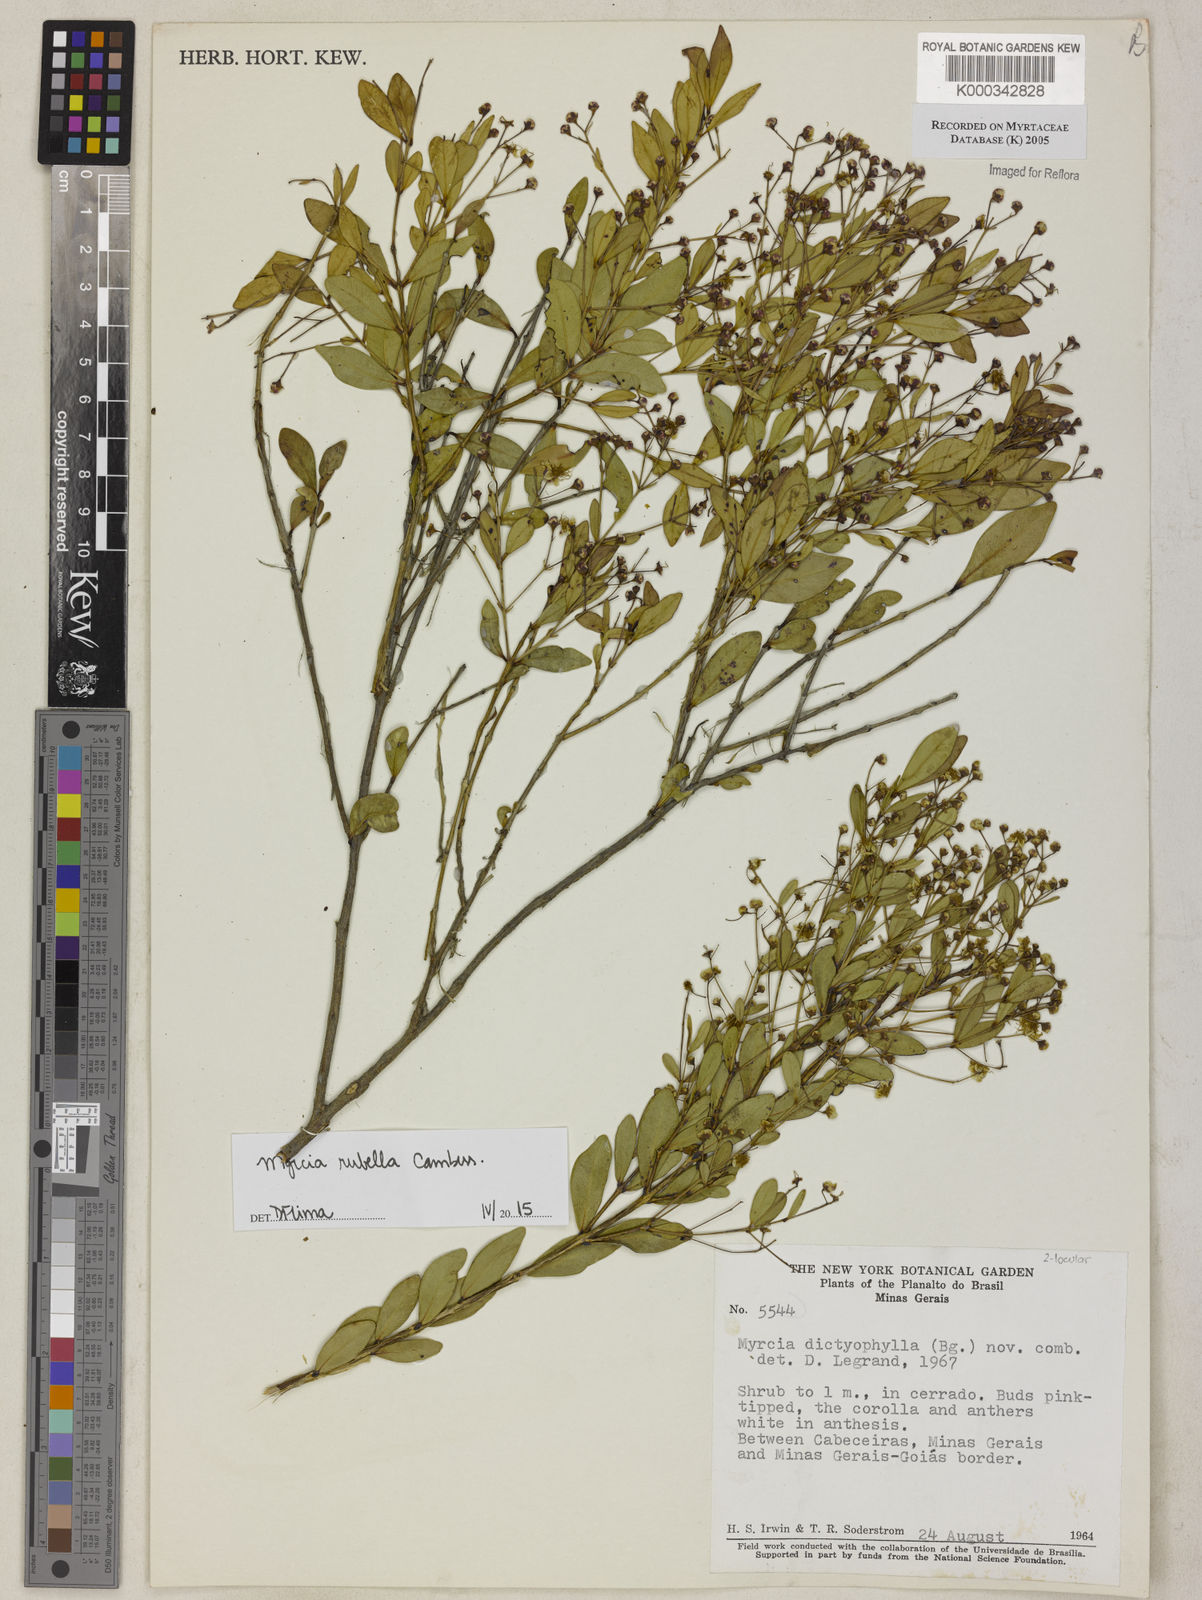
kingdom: Plantae
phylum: Tracheophyta
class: Magnoliopsida
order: Myrtales
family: Myrtaceae
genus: Myrcia
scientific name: Myrcia dictyophleba
